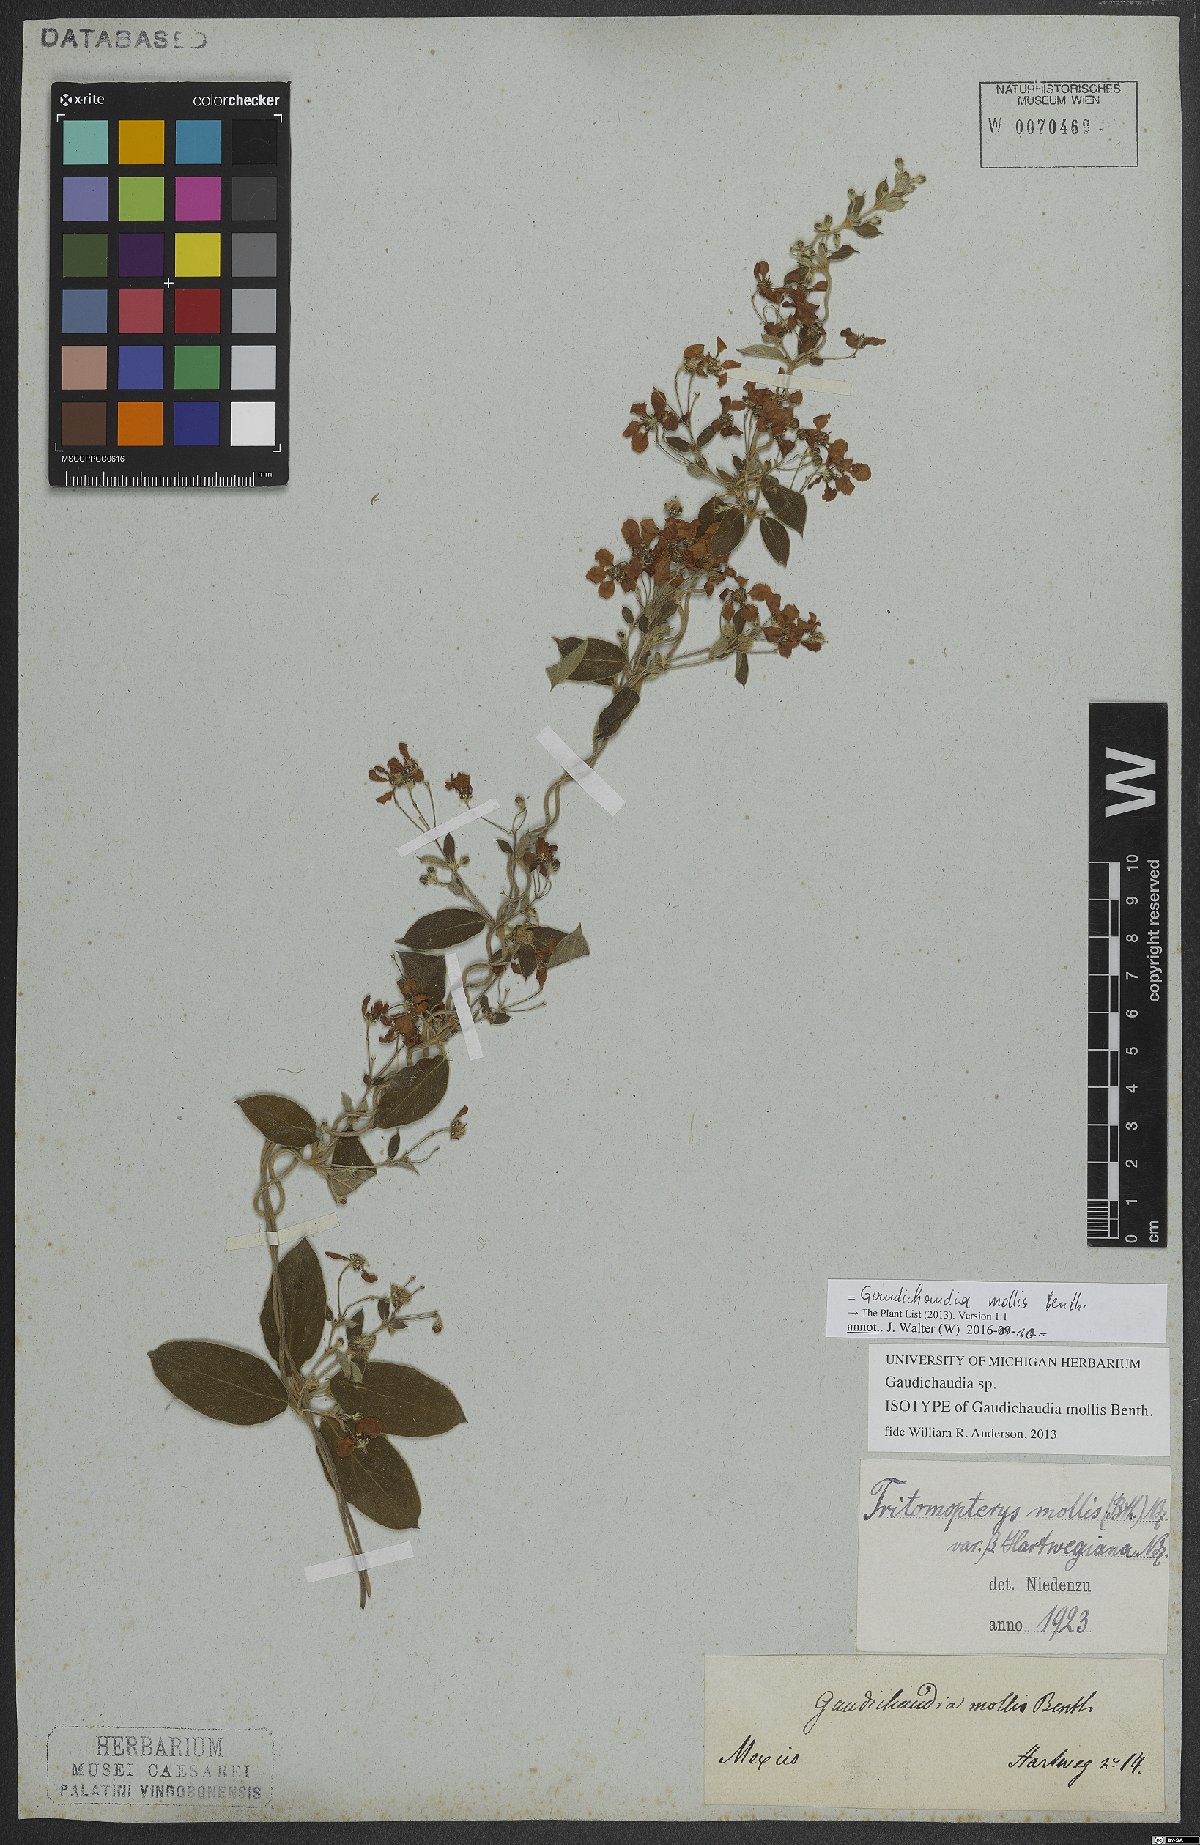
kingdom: Plantae
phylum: Tracheophyta
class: Magnoliopsida
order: Malpighiales
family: Malpighiaceae
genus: Gaudichaudia
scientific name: Gaudichaudia mollis
